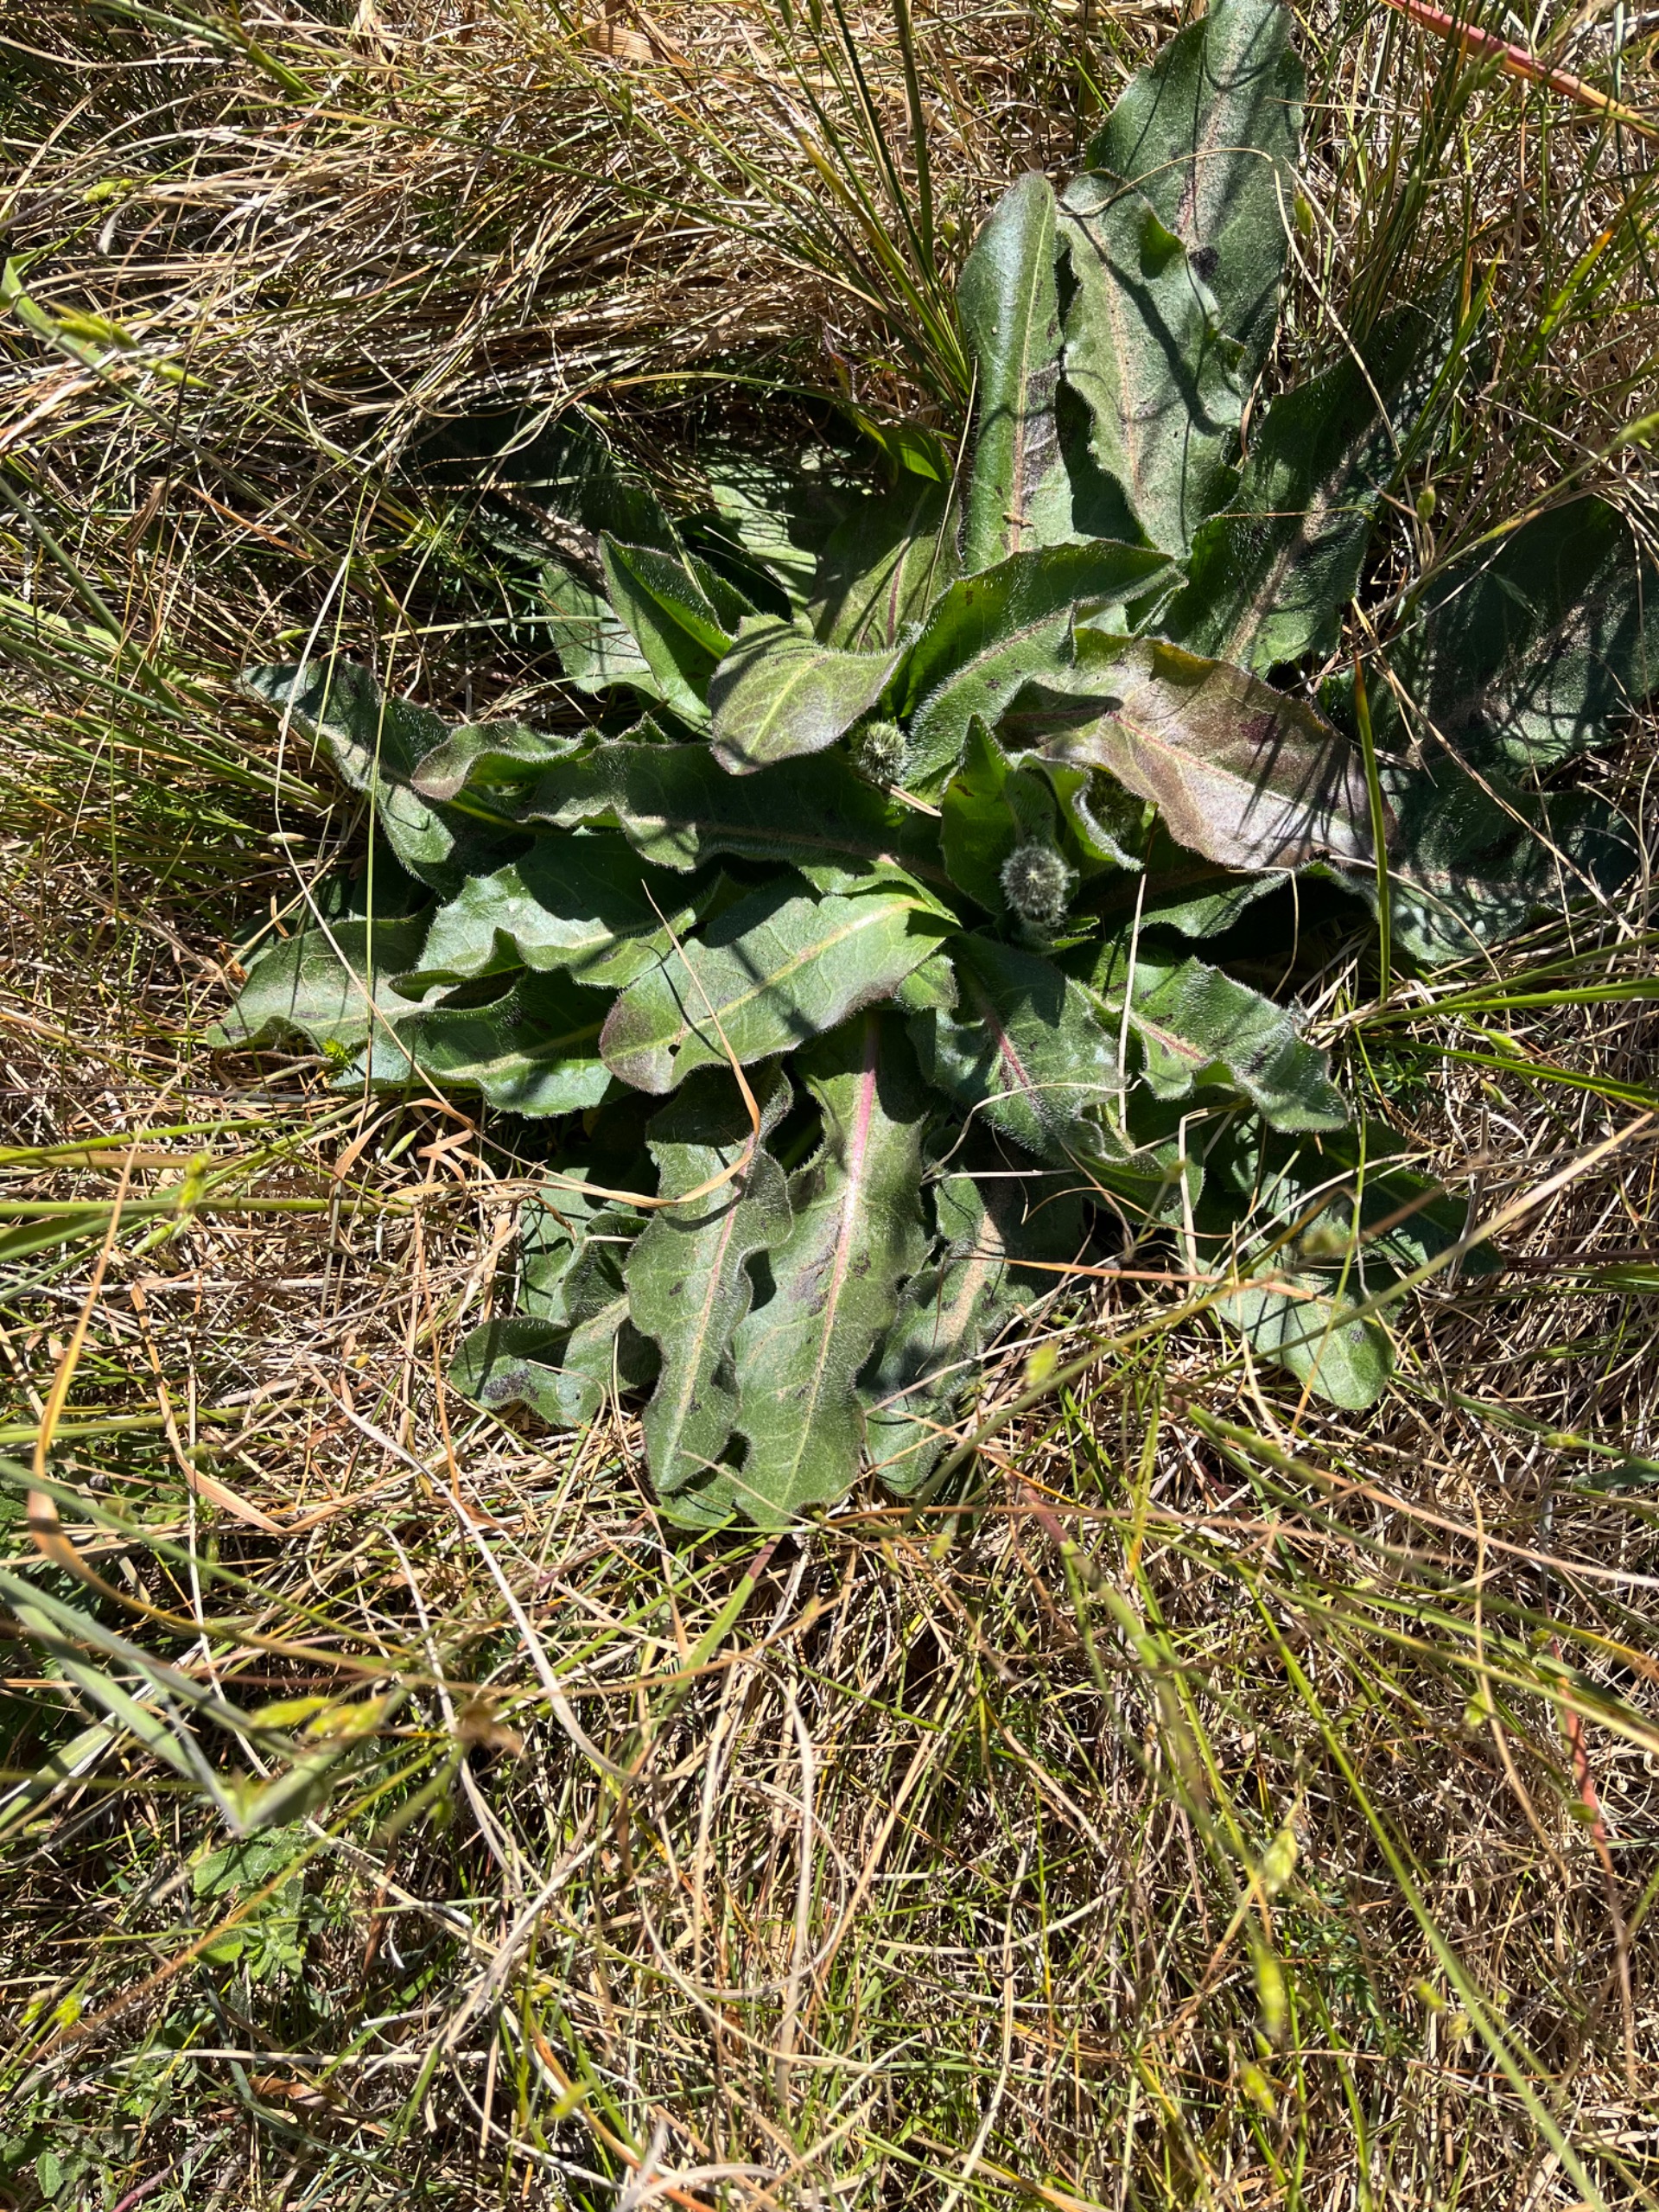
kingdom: Plantae
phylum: Tracheophyta
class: Magnoliopsida
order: Asterales
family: Asteraceae
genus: Trommsdorffia
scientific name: Trommsdorffia maculata
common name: Plettet kongepen
